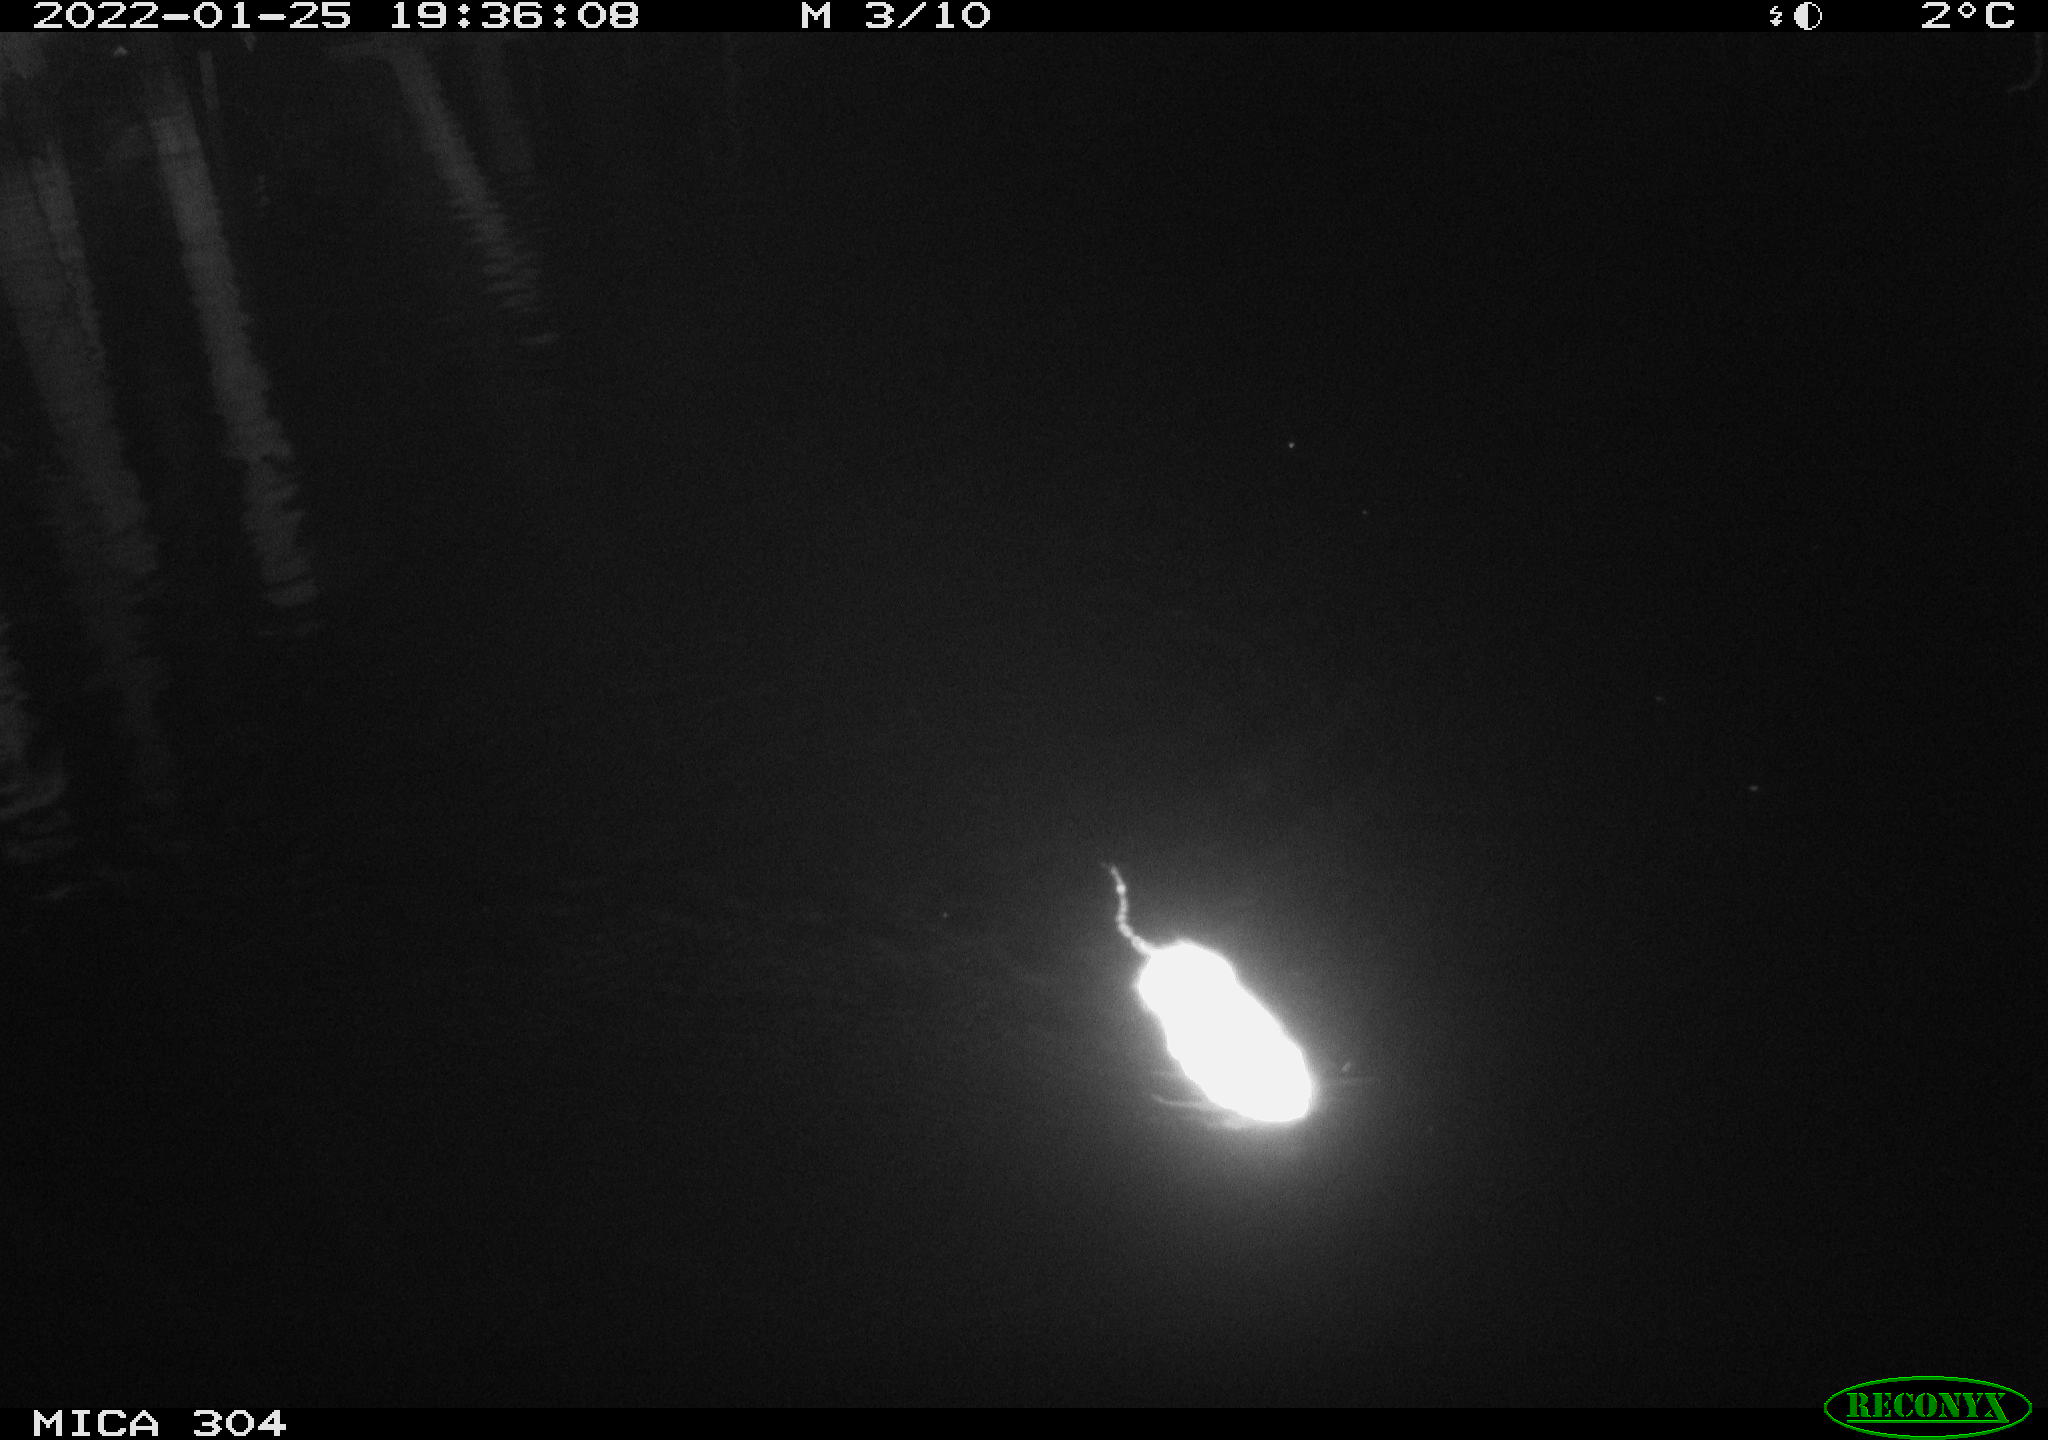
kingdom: Animalia
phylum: Chordata
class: Mammalia
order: Rodentia
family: Cricetidae
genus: Ondatra
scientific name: Ondatra zibethicus
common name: Muskrat
